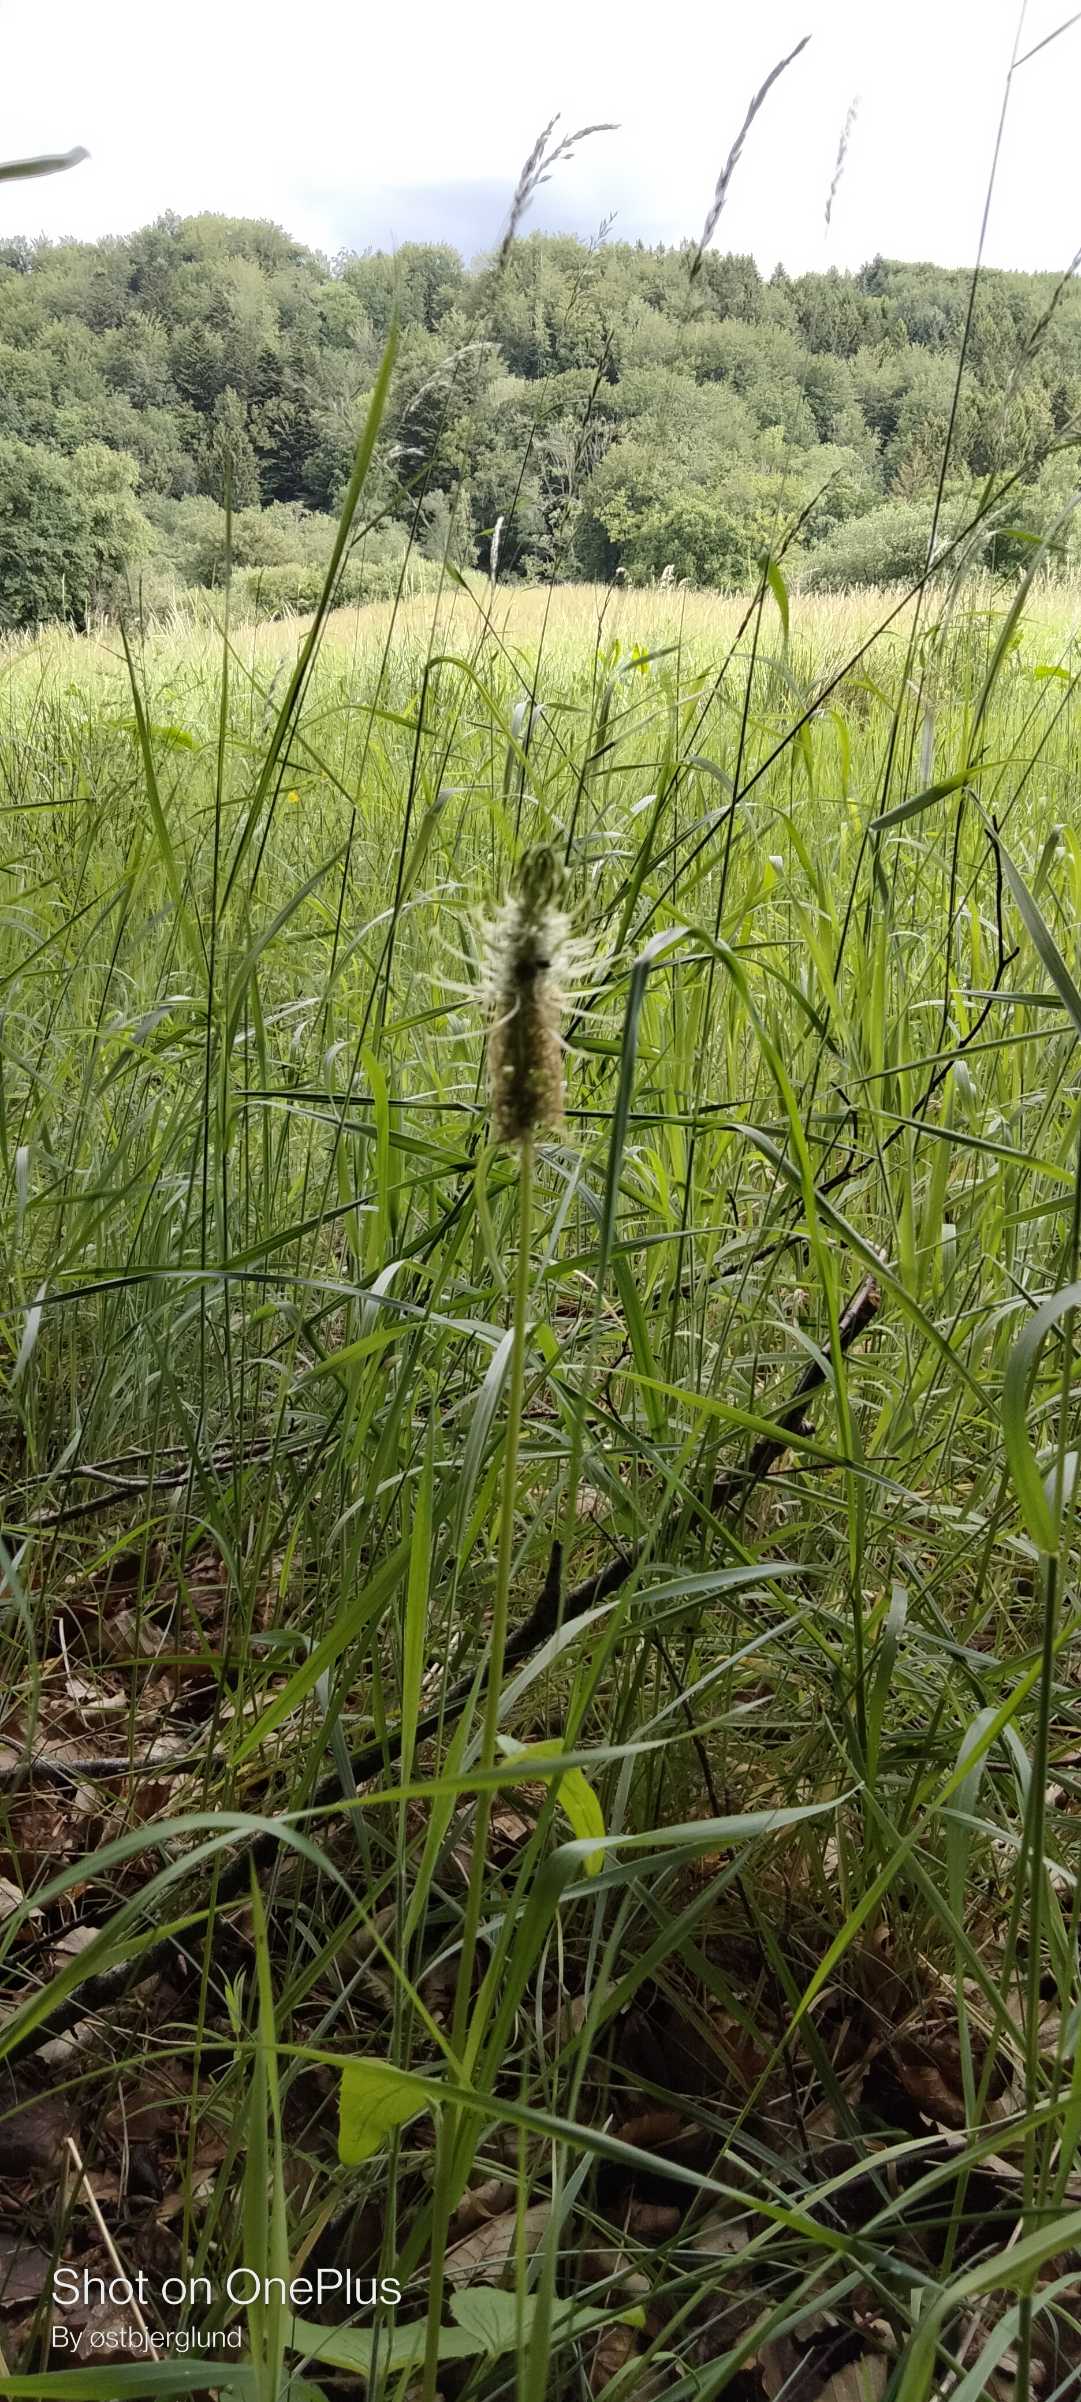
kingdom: Plantae
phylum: Tracheophyta
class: Magnoliopsida
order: Asterales
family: Campanulaceae
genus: Phyteuma
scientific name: Phyteuma spicatum
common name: Aks-rapunsel (underart)
